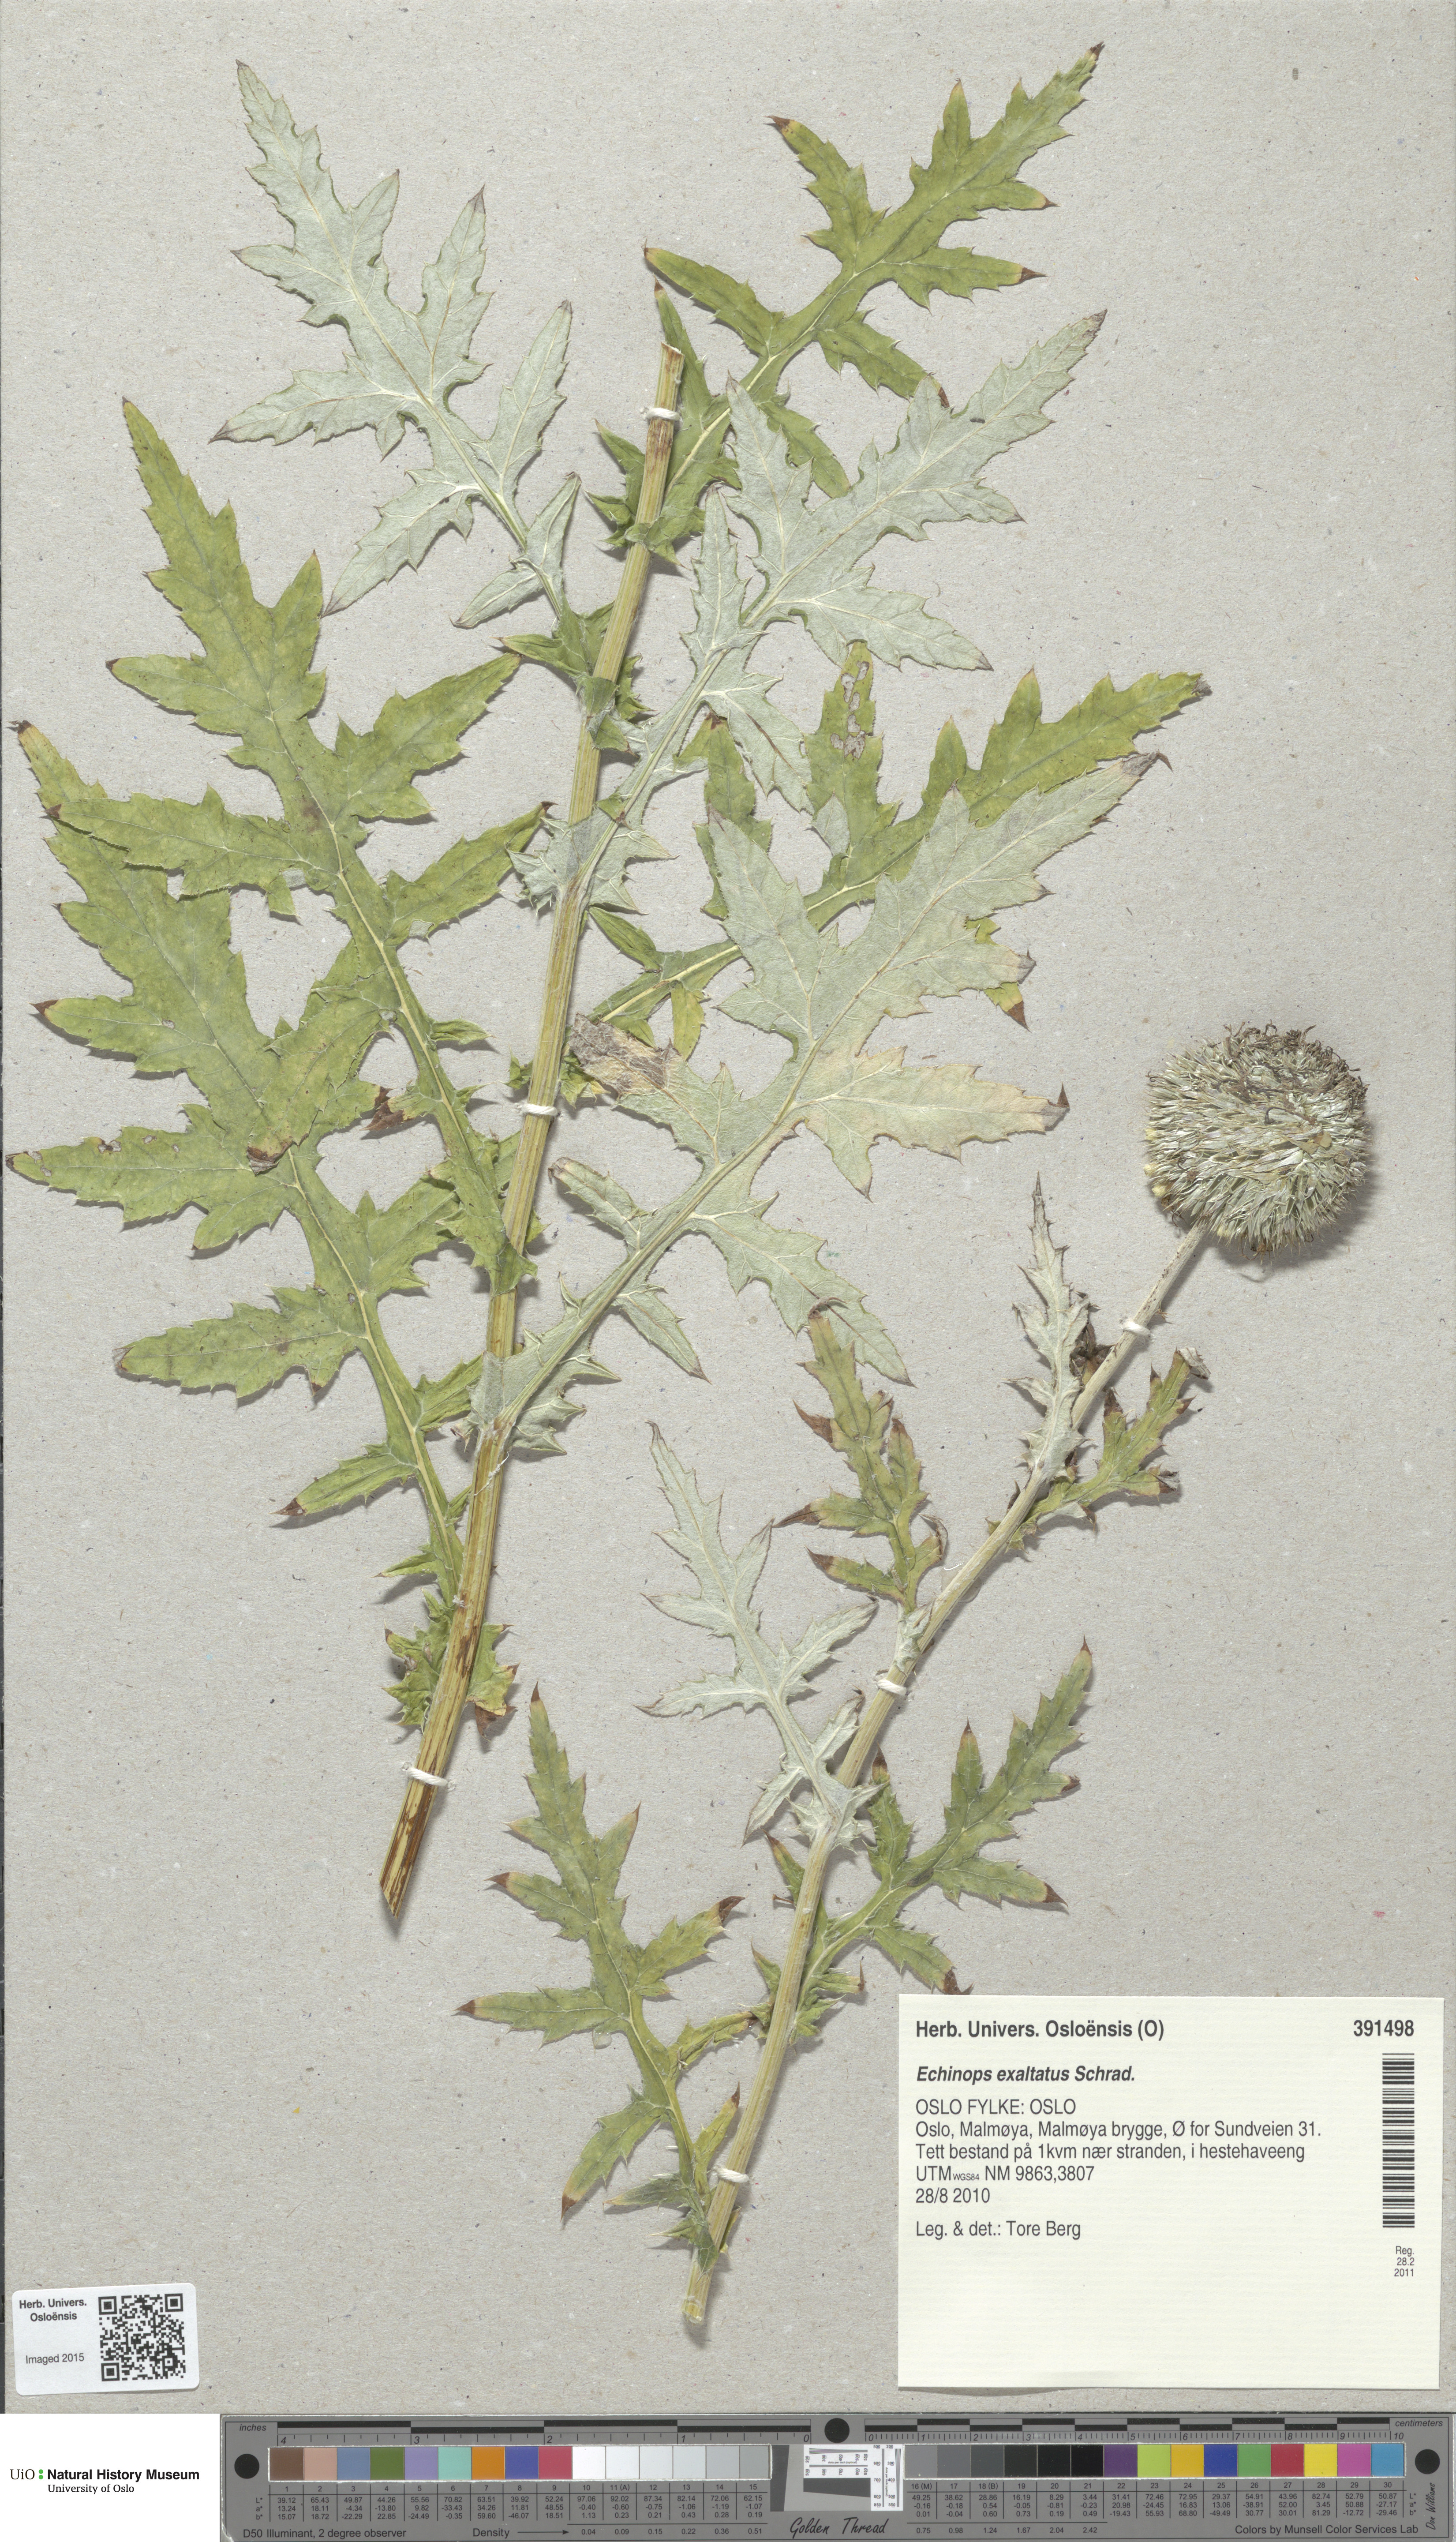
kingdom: Plantae
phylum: Tracheophyta
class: Magnoliopsida
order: Asterales
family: Asteraceae
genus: Echinops
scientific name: Echinops exaltatus
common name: Globe-thistle
